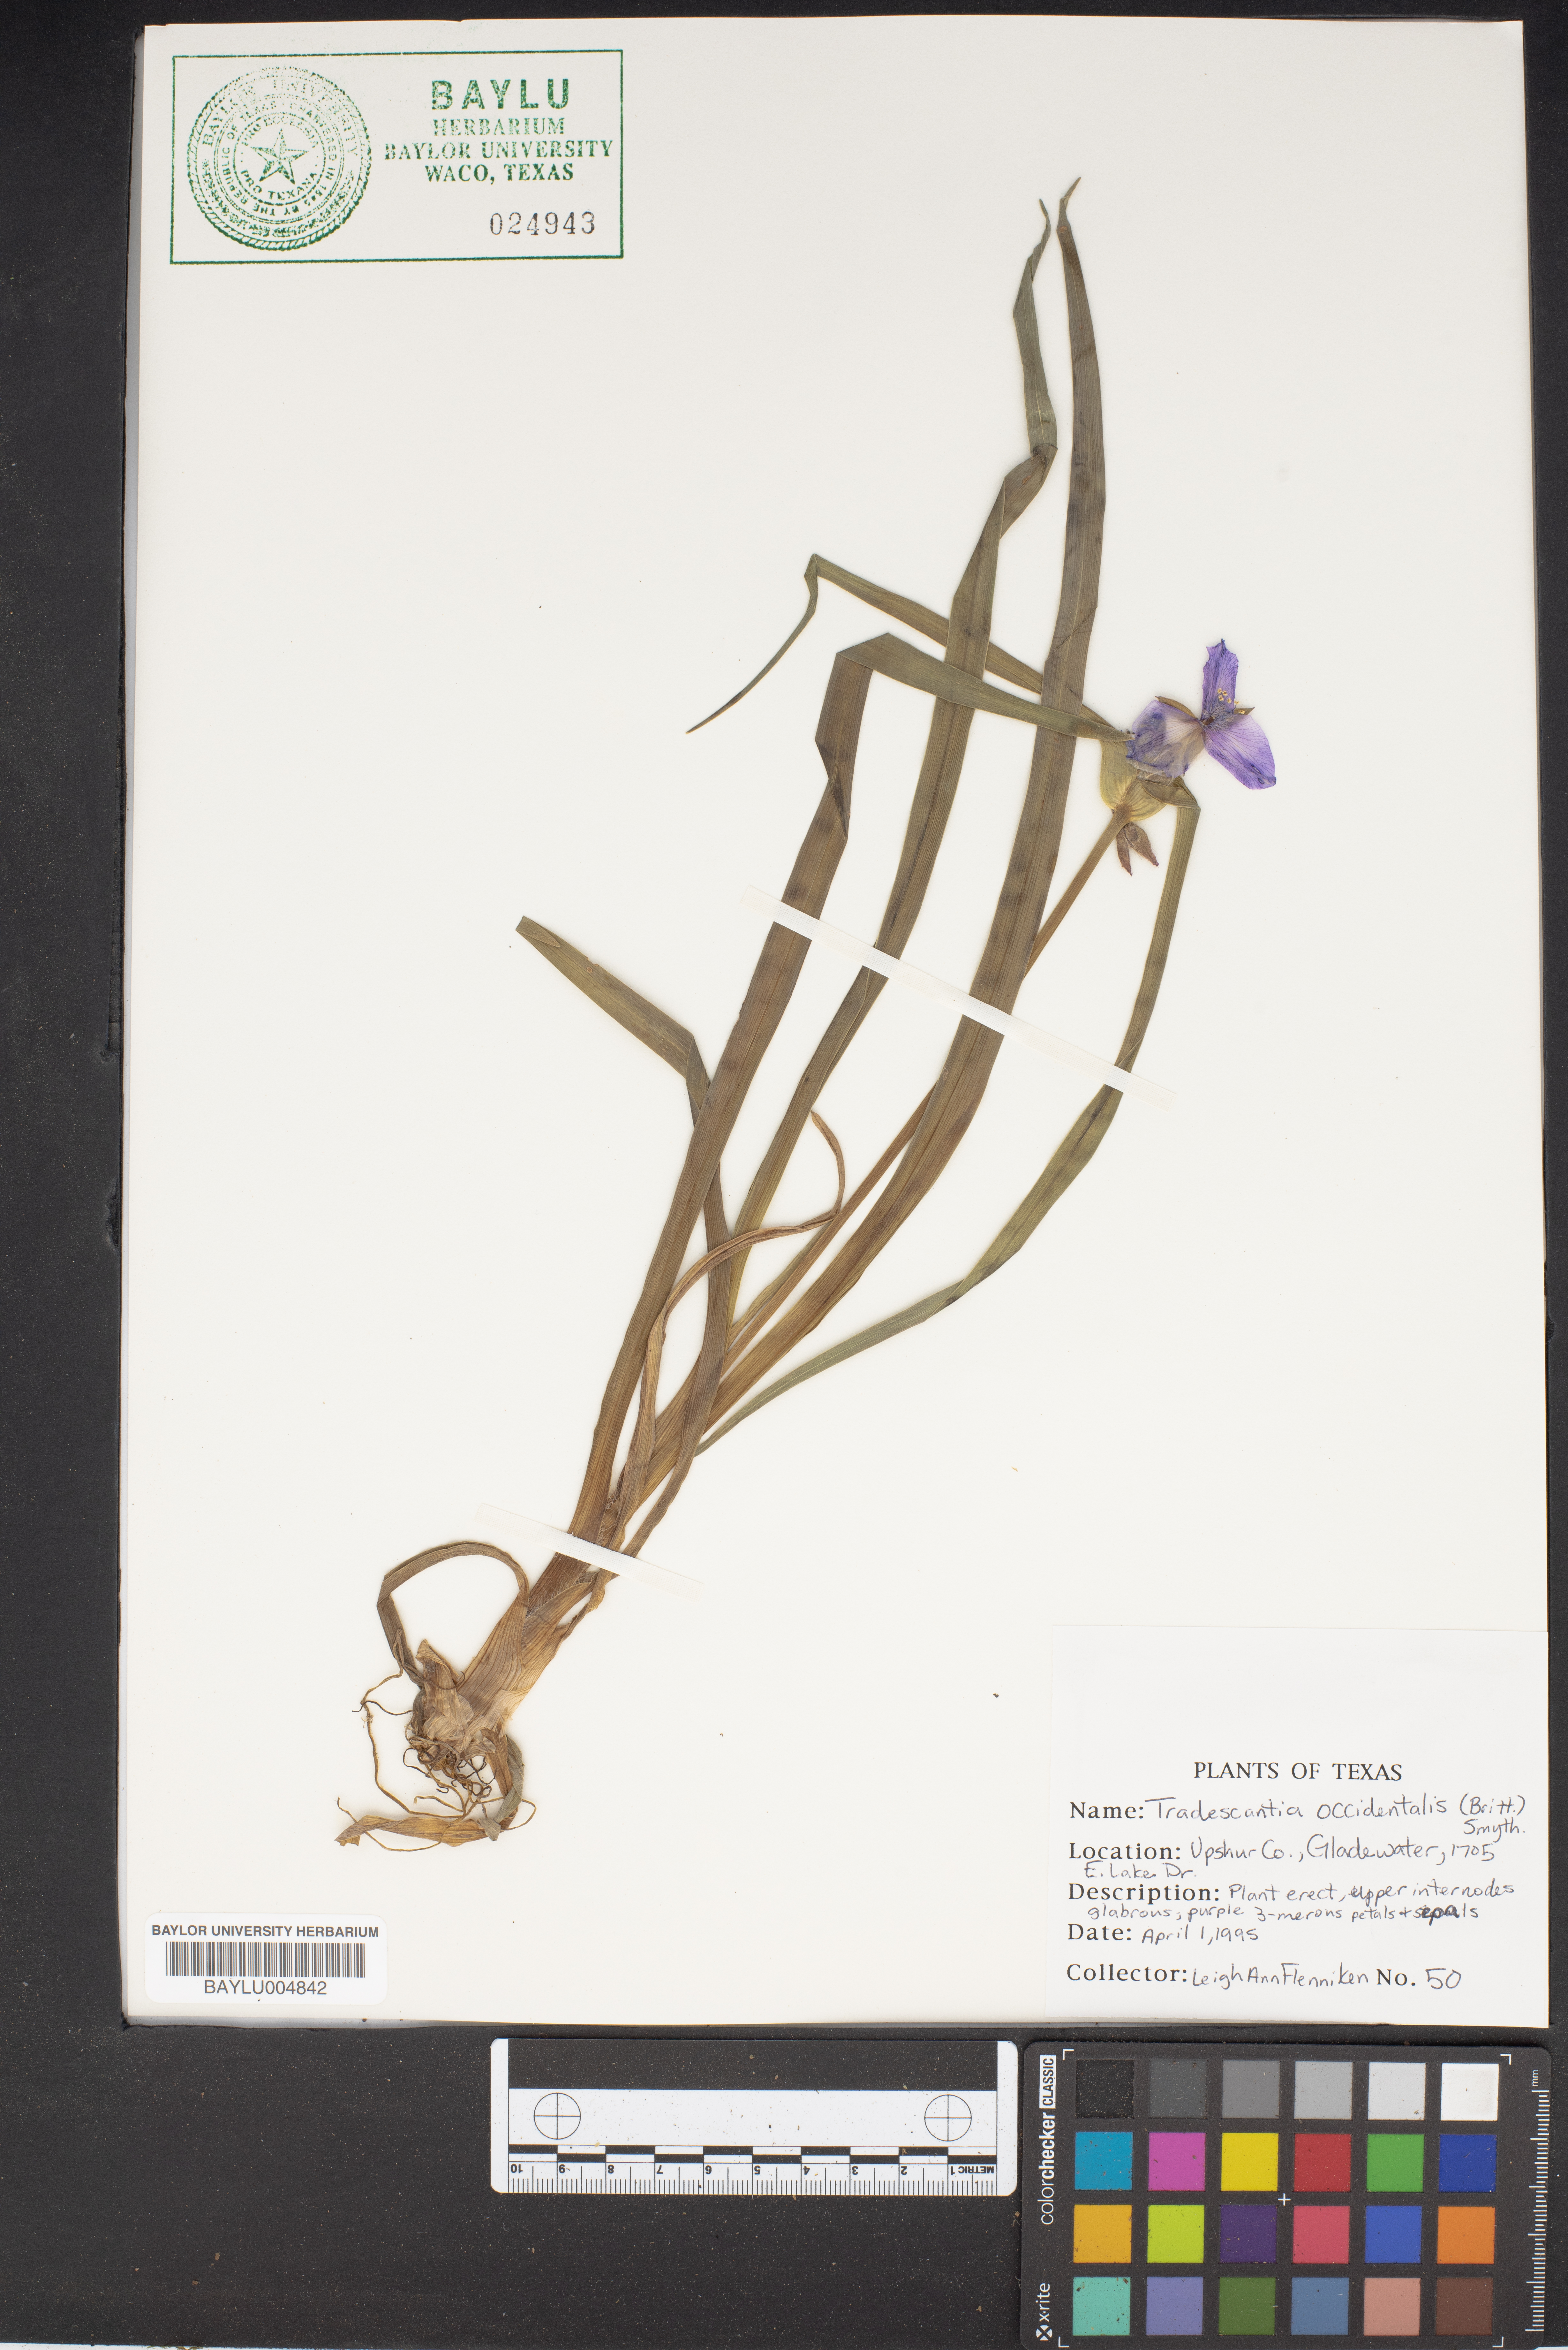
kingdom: Plantae
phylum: Tracheophyta
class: Liliopsida
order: Commelinales
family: Commelinaceae
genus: Tradescantia
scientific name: Tradescantia occidentalis
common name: Prairie spiderwort
